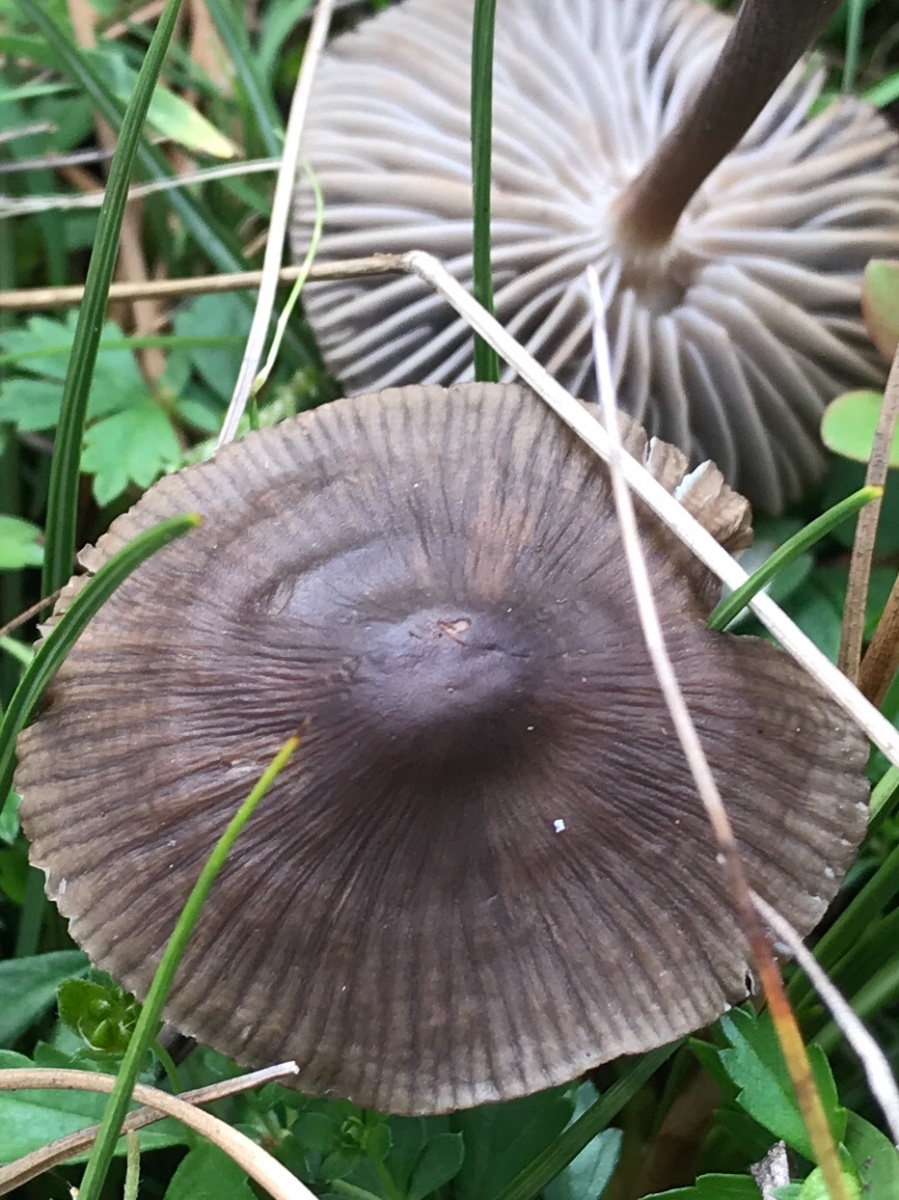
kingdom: Fungi
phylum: Basidiomycota
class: Agaricomycetes
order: Agaricales
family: Mycenaceae
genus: Mycena
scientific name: Mycena megaspora
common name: brusk-huesvamp
